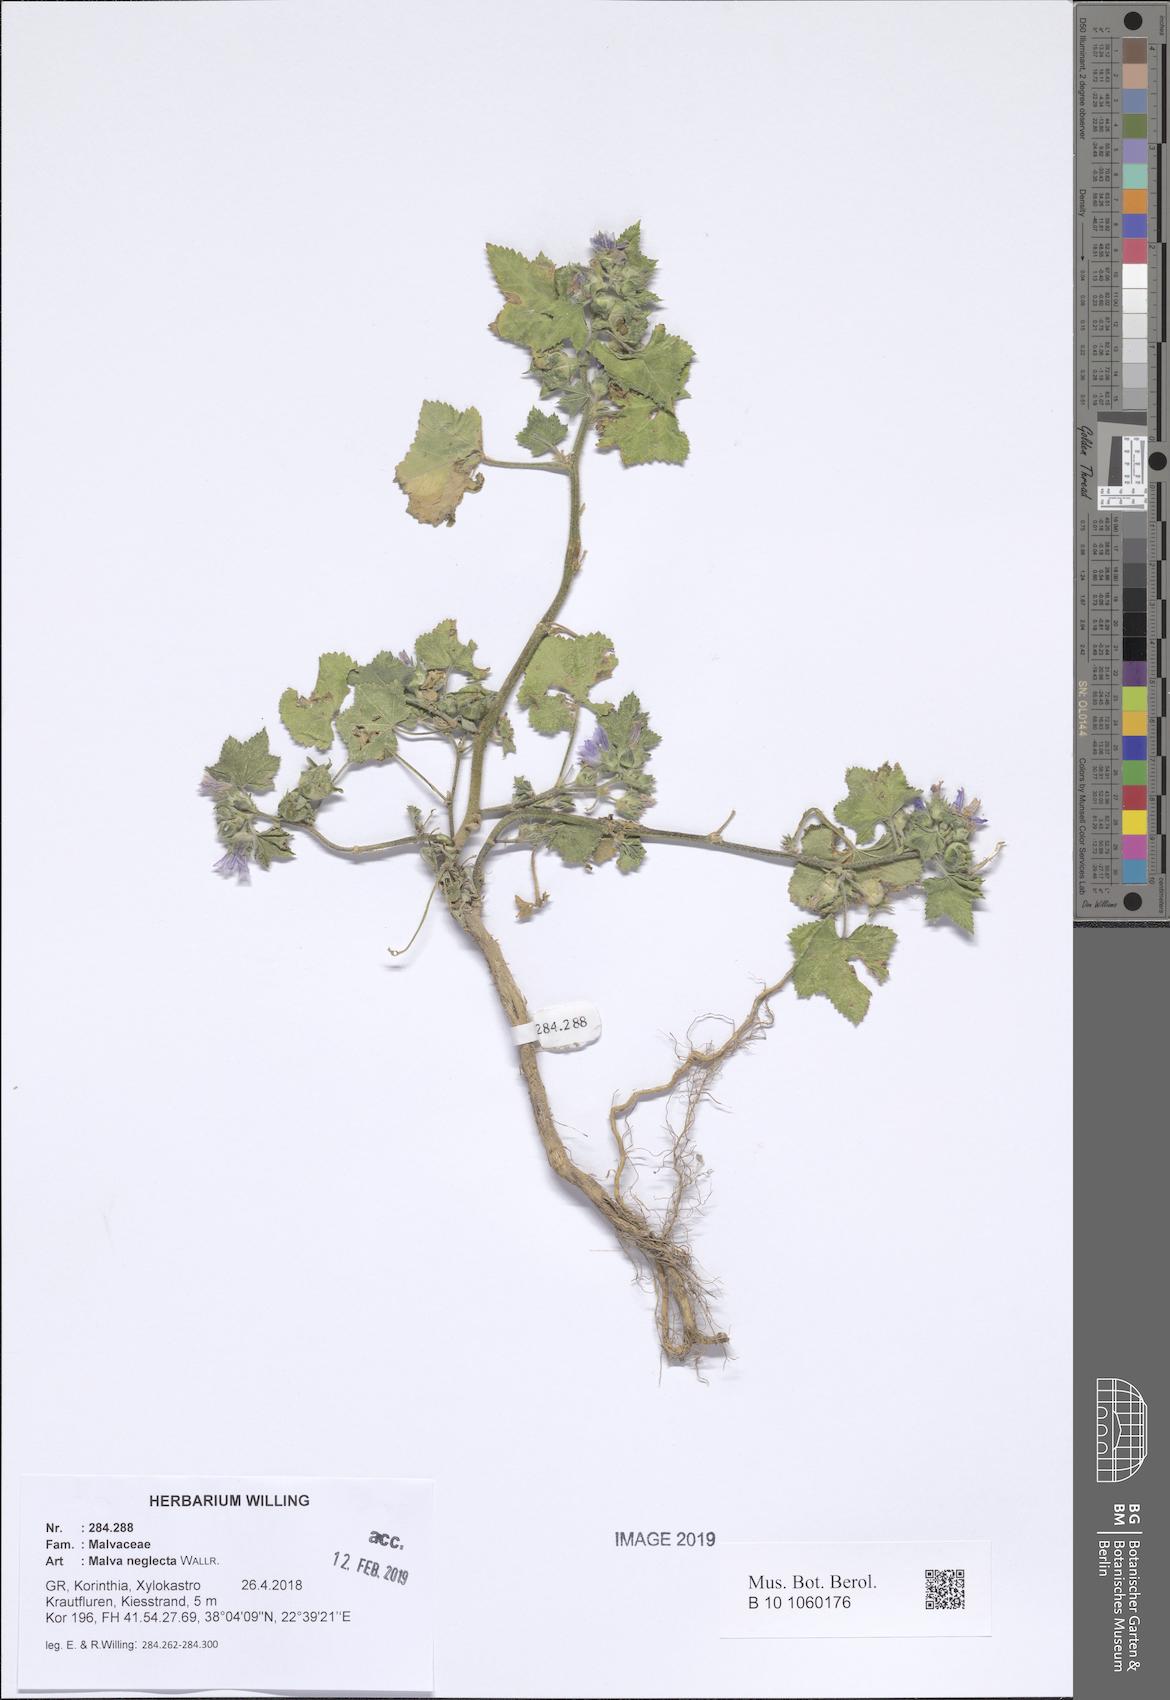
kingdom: Plantae
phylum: Tracheophyta
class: Magnoliopsida
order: Malvales
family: Malvaceae
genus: Malva
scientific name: Malva neglecta
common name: Common mallow
